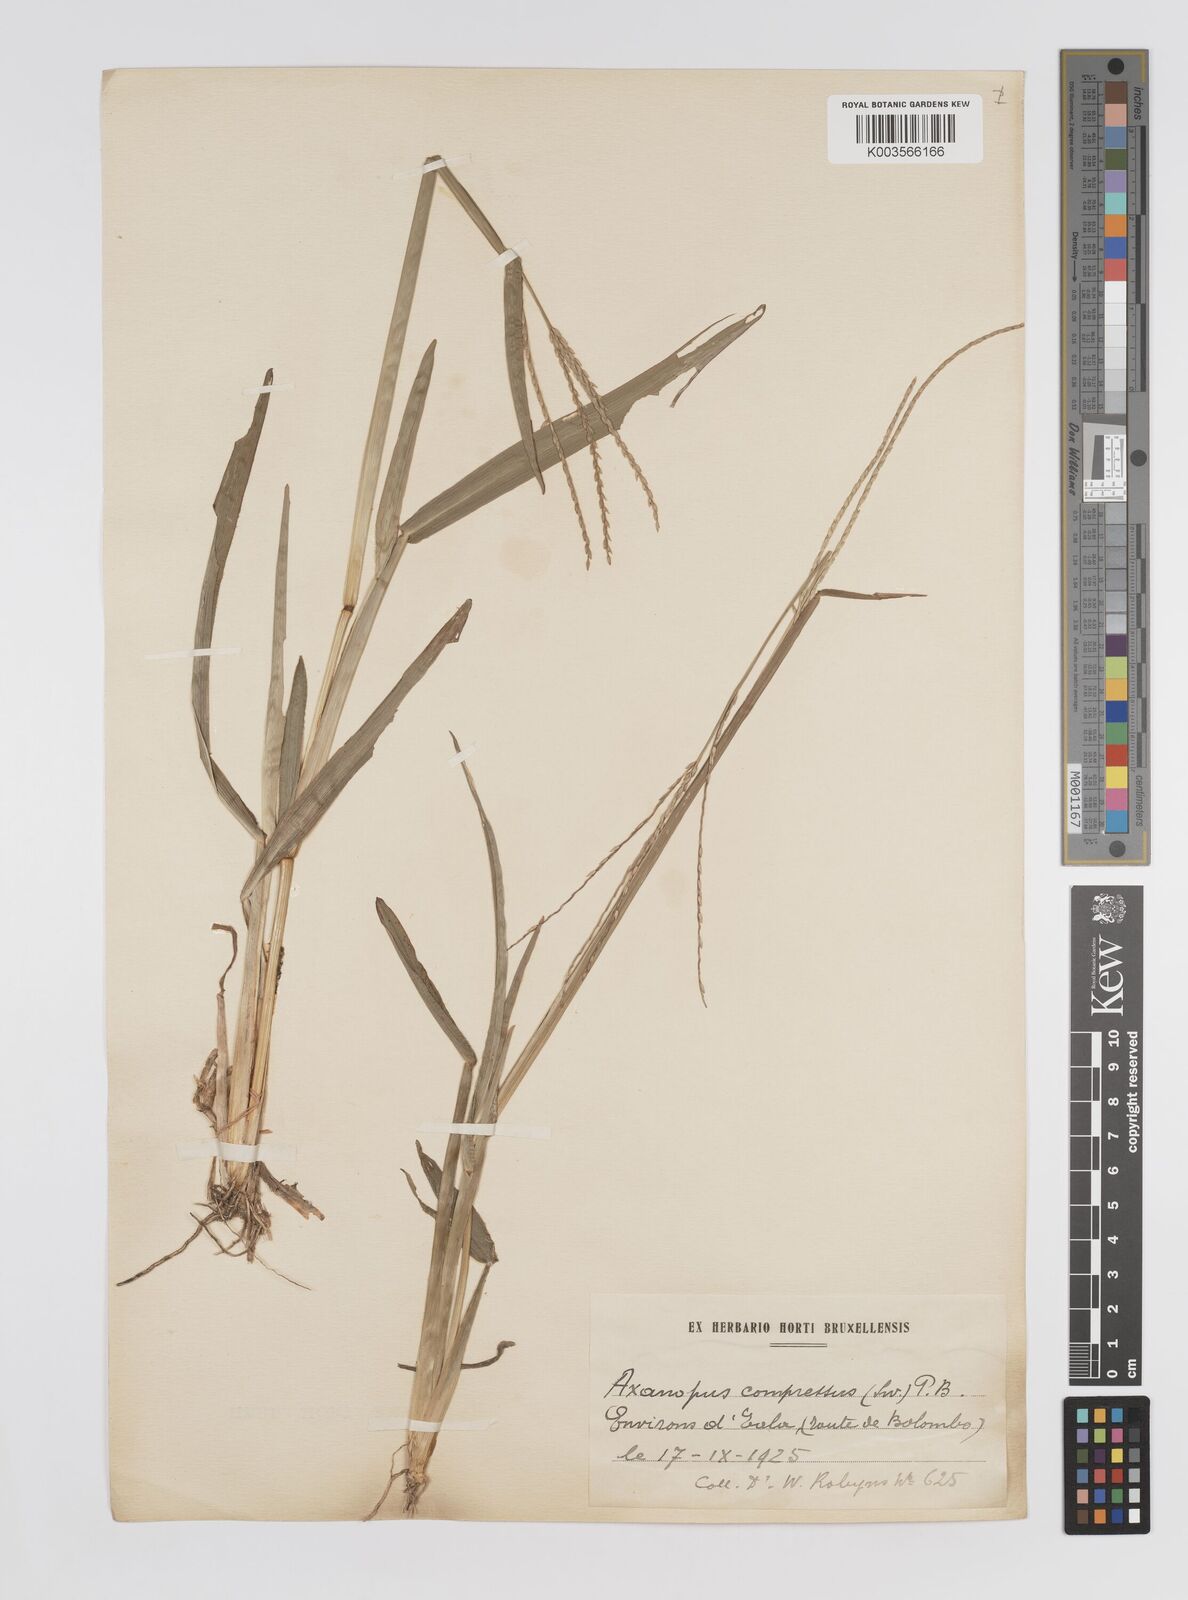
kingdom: Plantae
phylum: Tracheophyta
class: Liliopsida
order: Poales
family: Poaceae
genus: Axonopus
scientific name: Axonopus flexuosus
